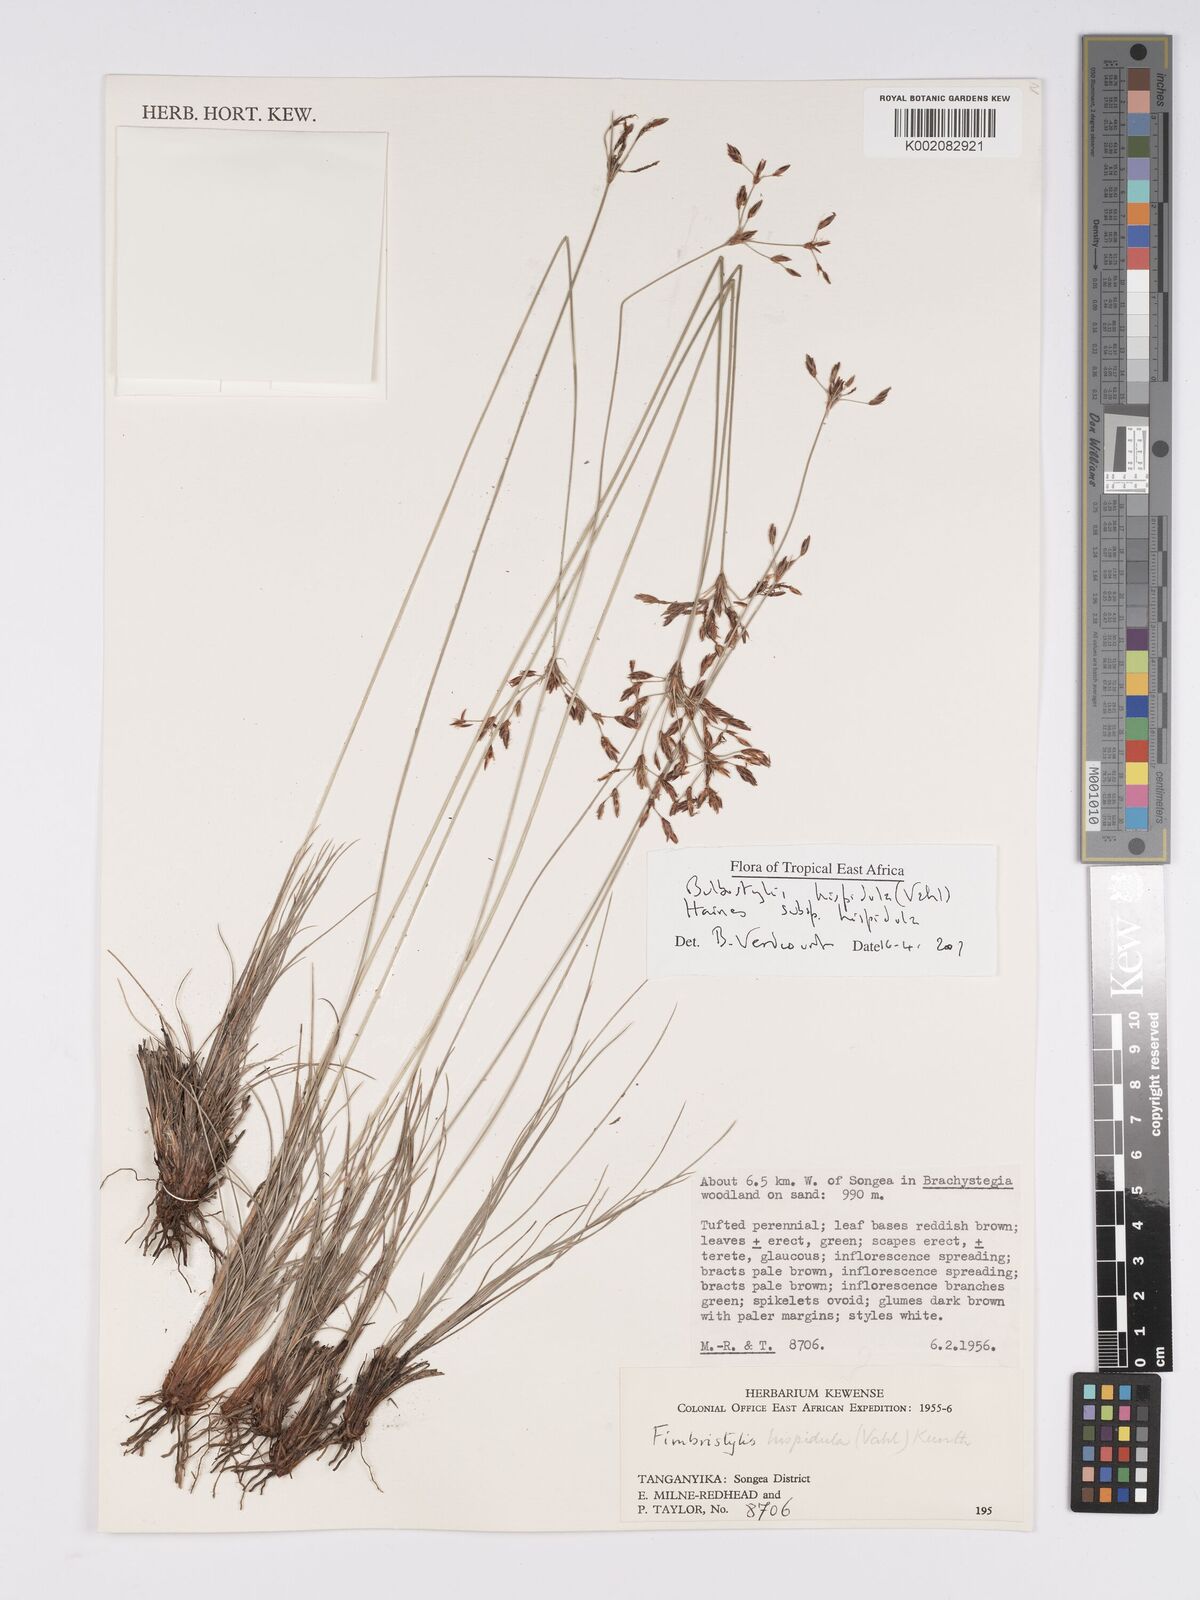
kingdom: Plantae
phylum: Tracheophyta
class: Liliopsida
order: Poales
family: Cyperaceae
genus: Bulbostylis
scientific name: Bulbostylis hispidula
